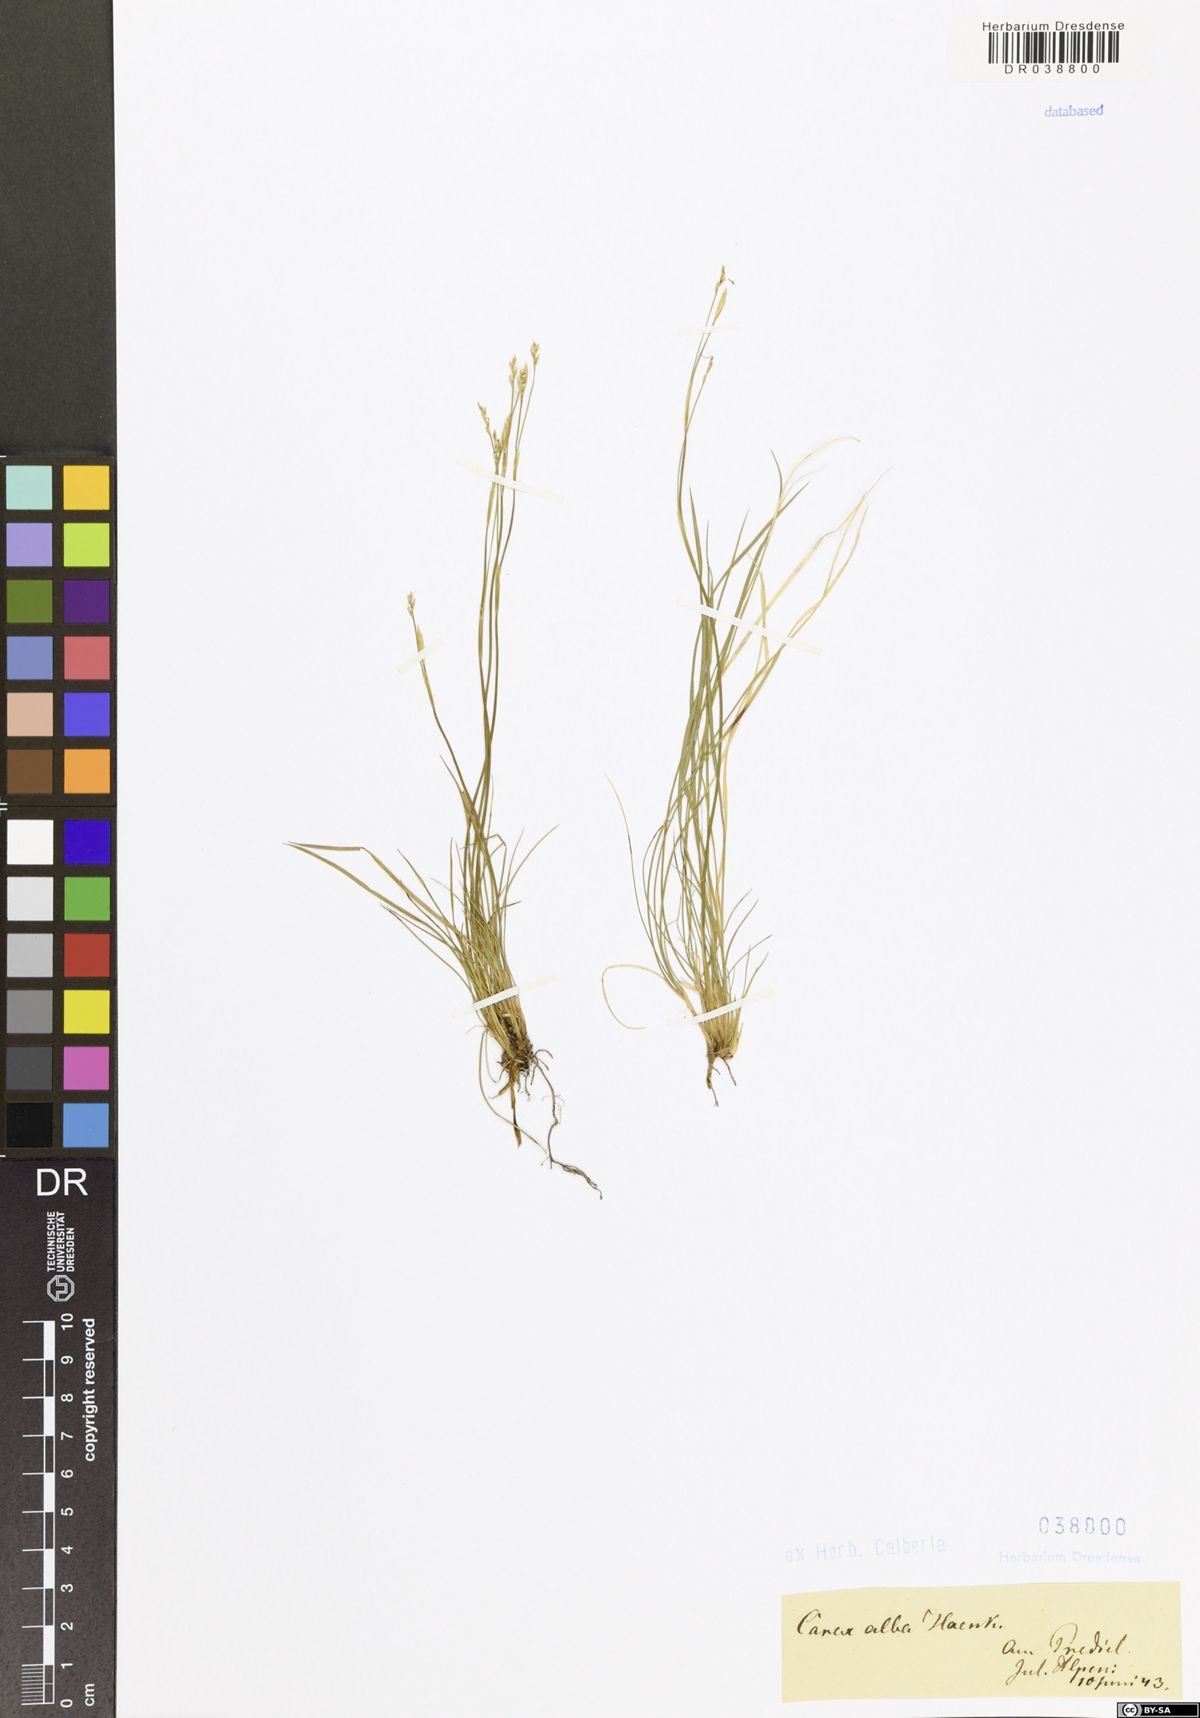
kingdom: Plantae
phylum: Tracheophyta
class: Liliopsida
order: Poales
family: Cyperaceae
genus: Carex
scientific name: Carex alba
